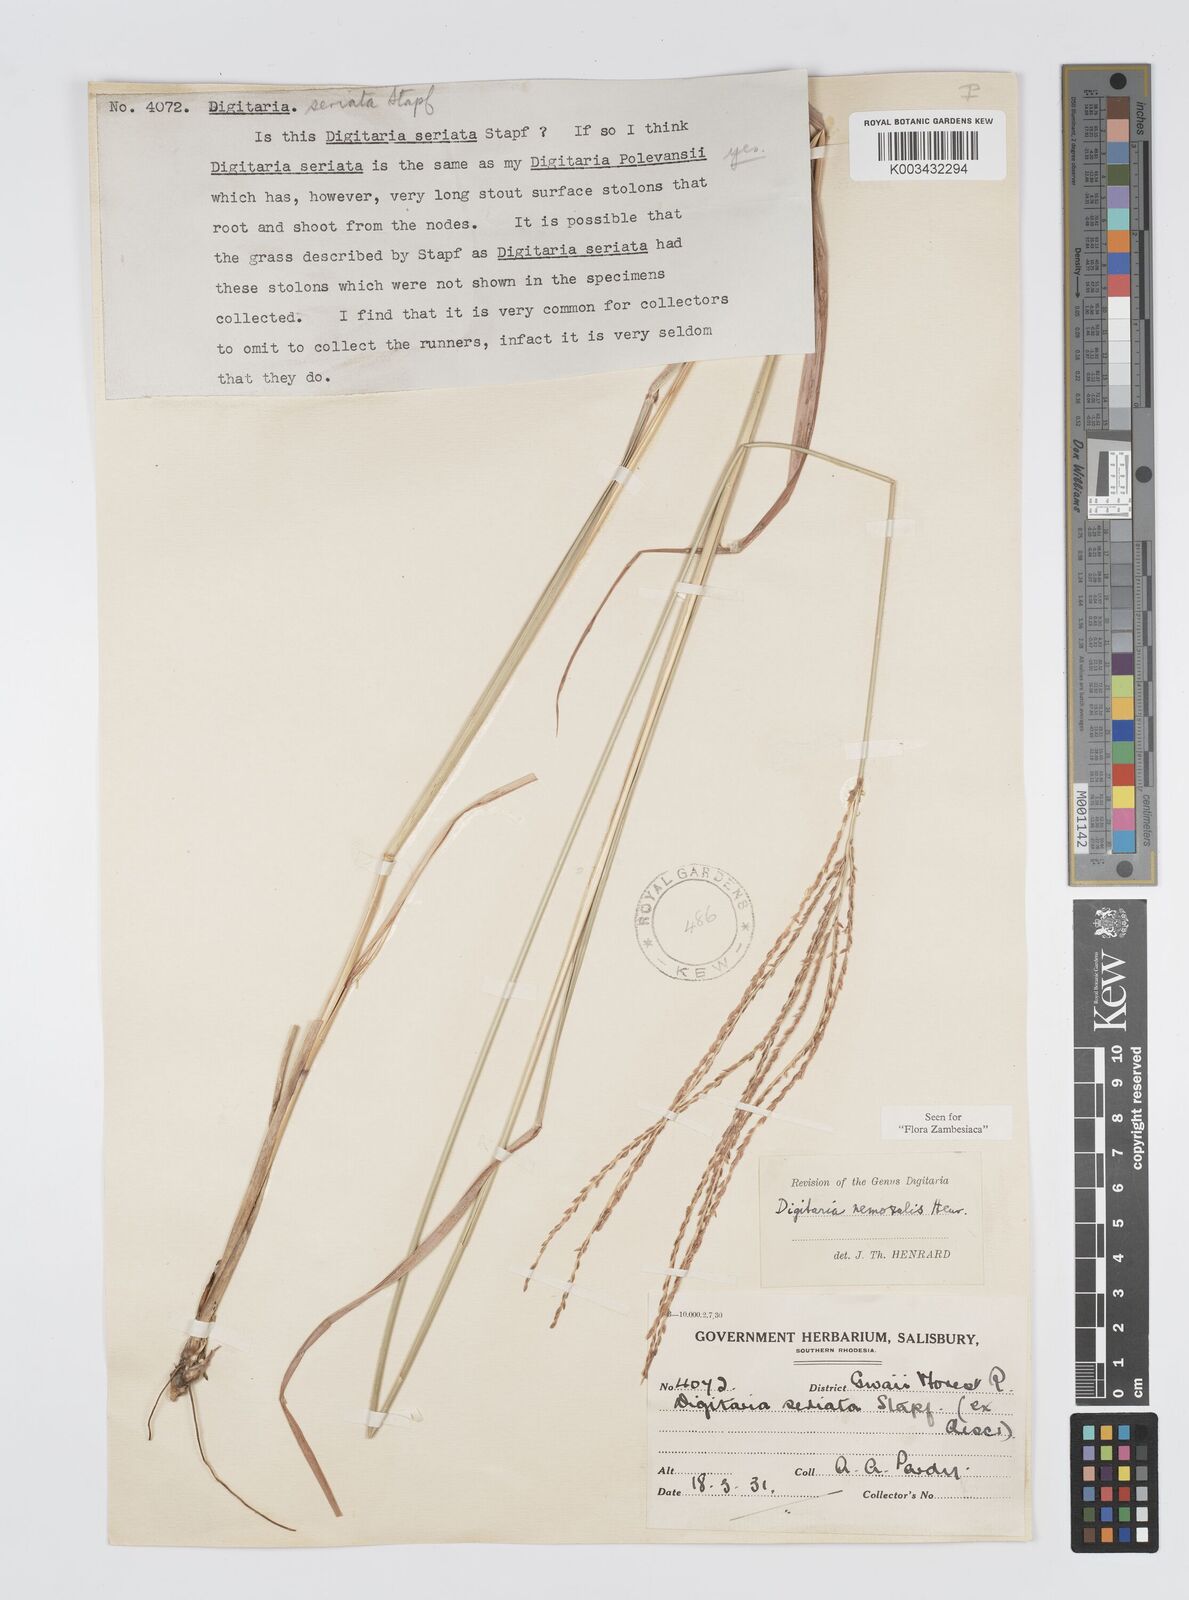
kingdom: Plantae
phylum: Tracheophyta
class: Liliopsida
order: Poales
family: Poaceae
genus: Digitaria
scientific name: Digitaria seriata
